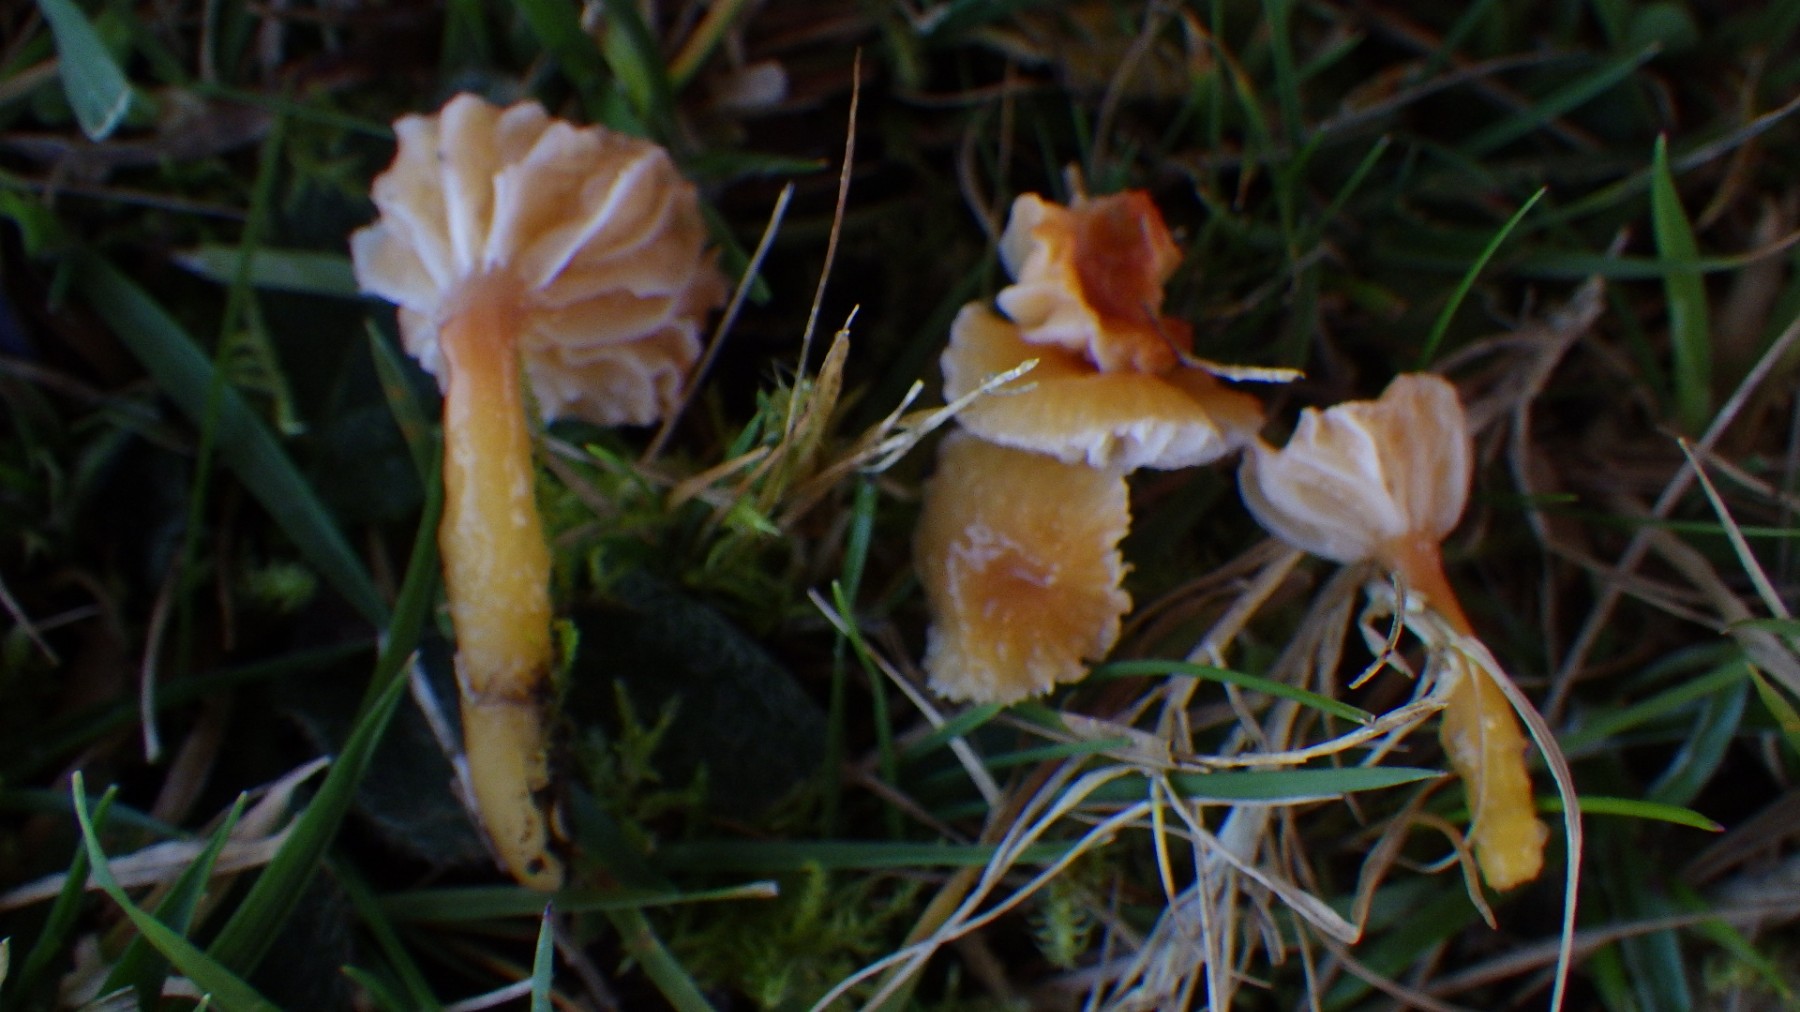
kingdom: Fungi
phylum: Basidiomycota
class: Agaricomycetes
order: Agaricales
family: Hygrophoraceae
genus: Gliophorus
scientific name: Gliophorus laetus
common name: brusk-vokshat
